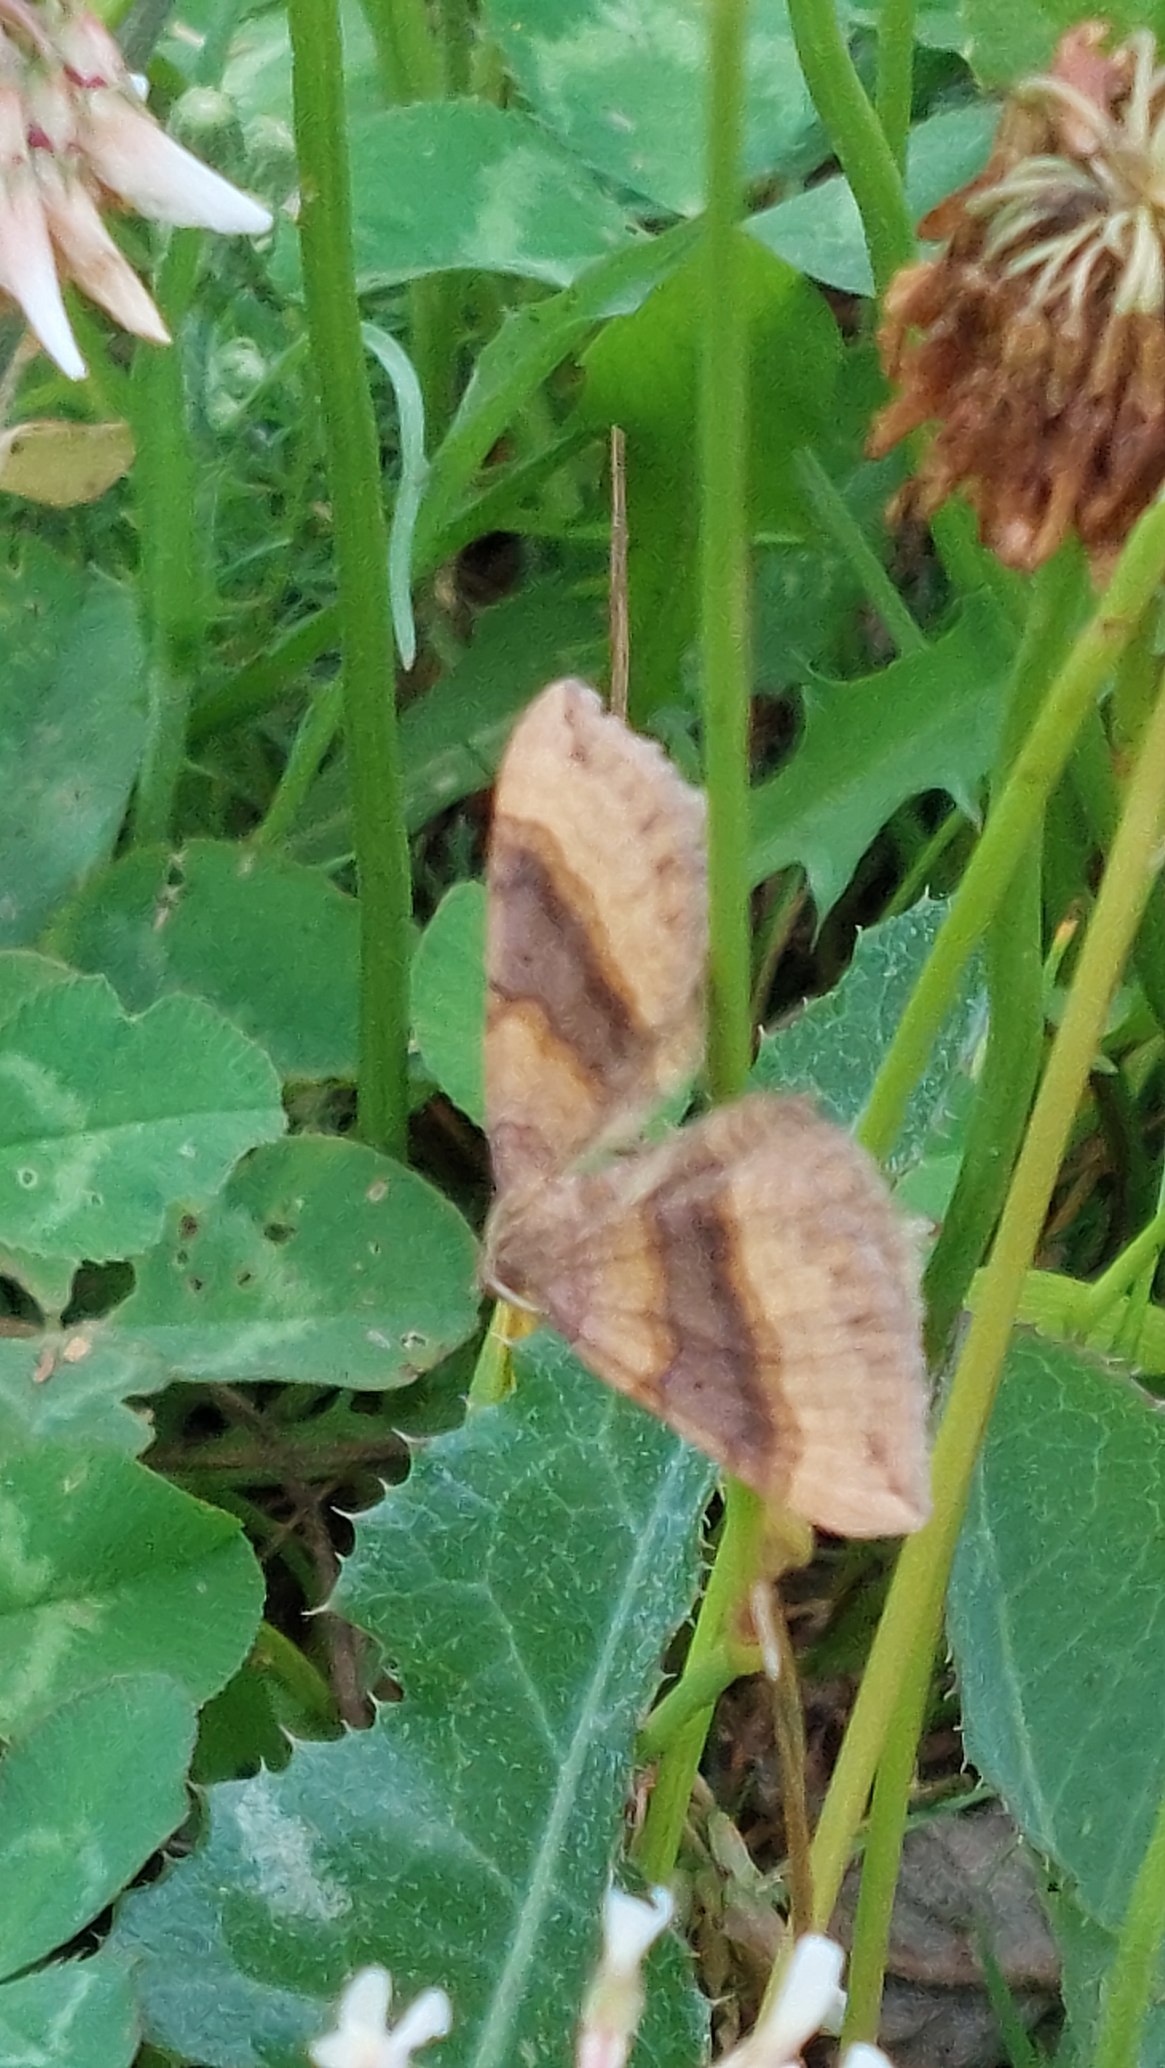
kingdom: Animalia
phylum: Arthropoda
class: Insecta
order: Lepidoptera
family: Geometridae
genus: Scotopteryx
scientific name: Scotopteryx chenopodiata
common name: Almindelig spidsvingemåler
